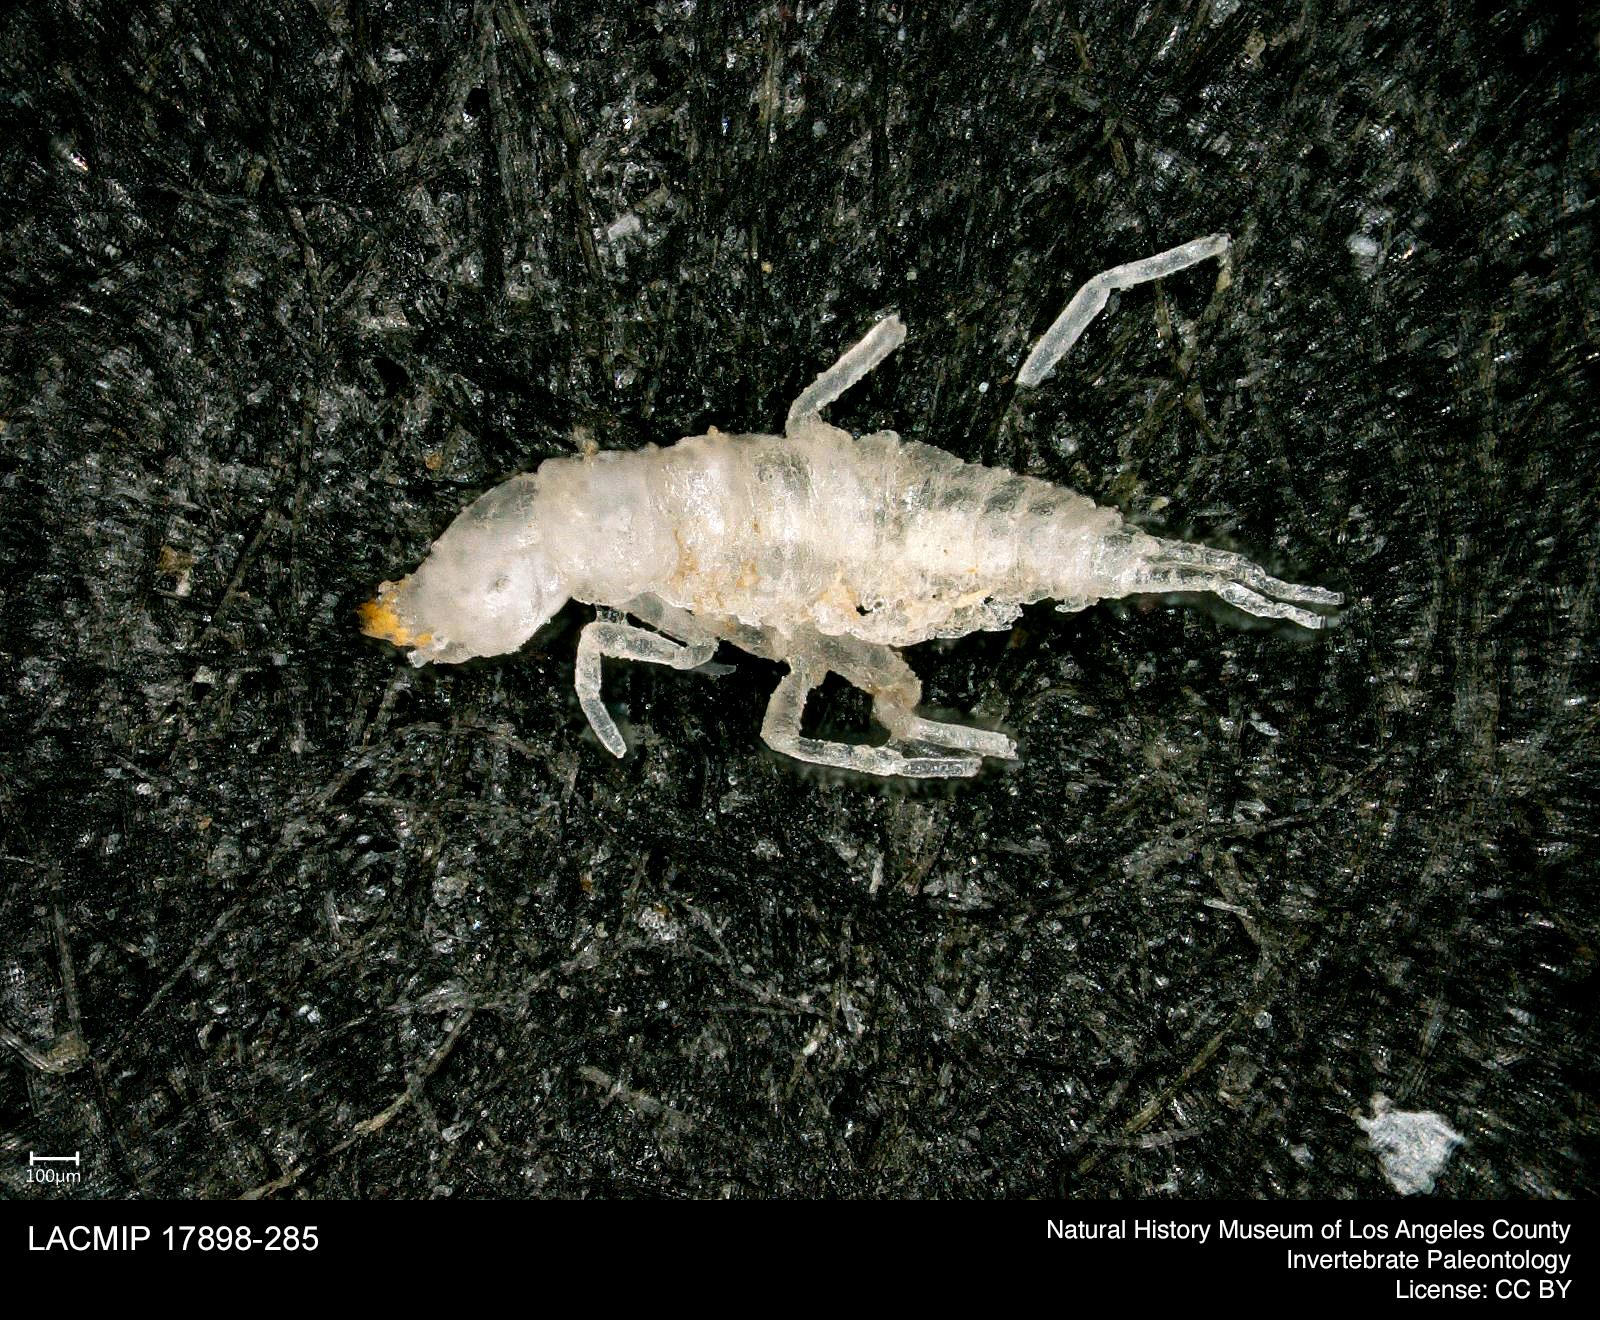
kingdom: Animalia
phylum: Arthropoda
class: Insecta
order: Coleoptera
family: Dytiscidae
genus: Schistomerus
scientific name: Schistomerus californense
